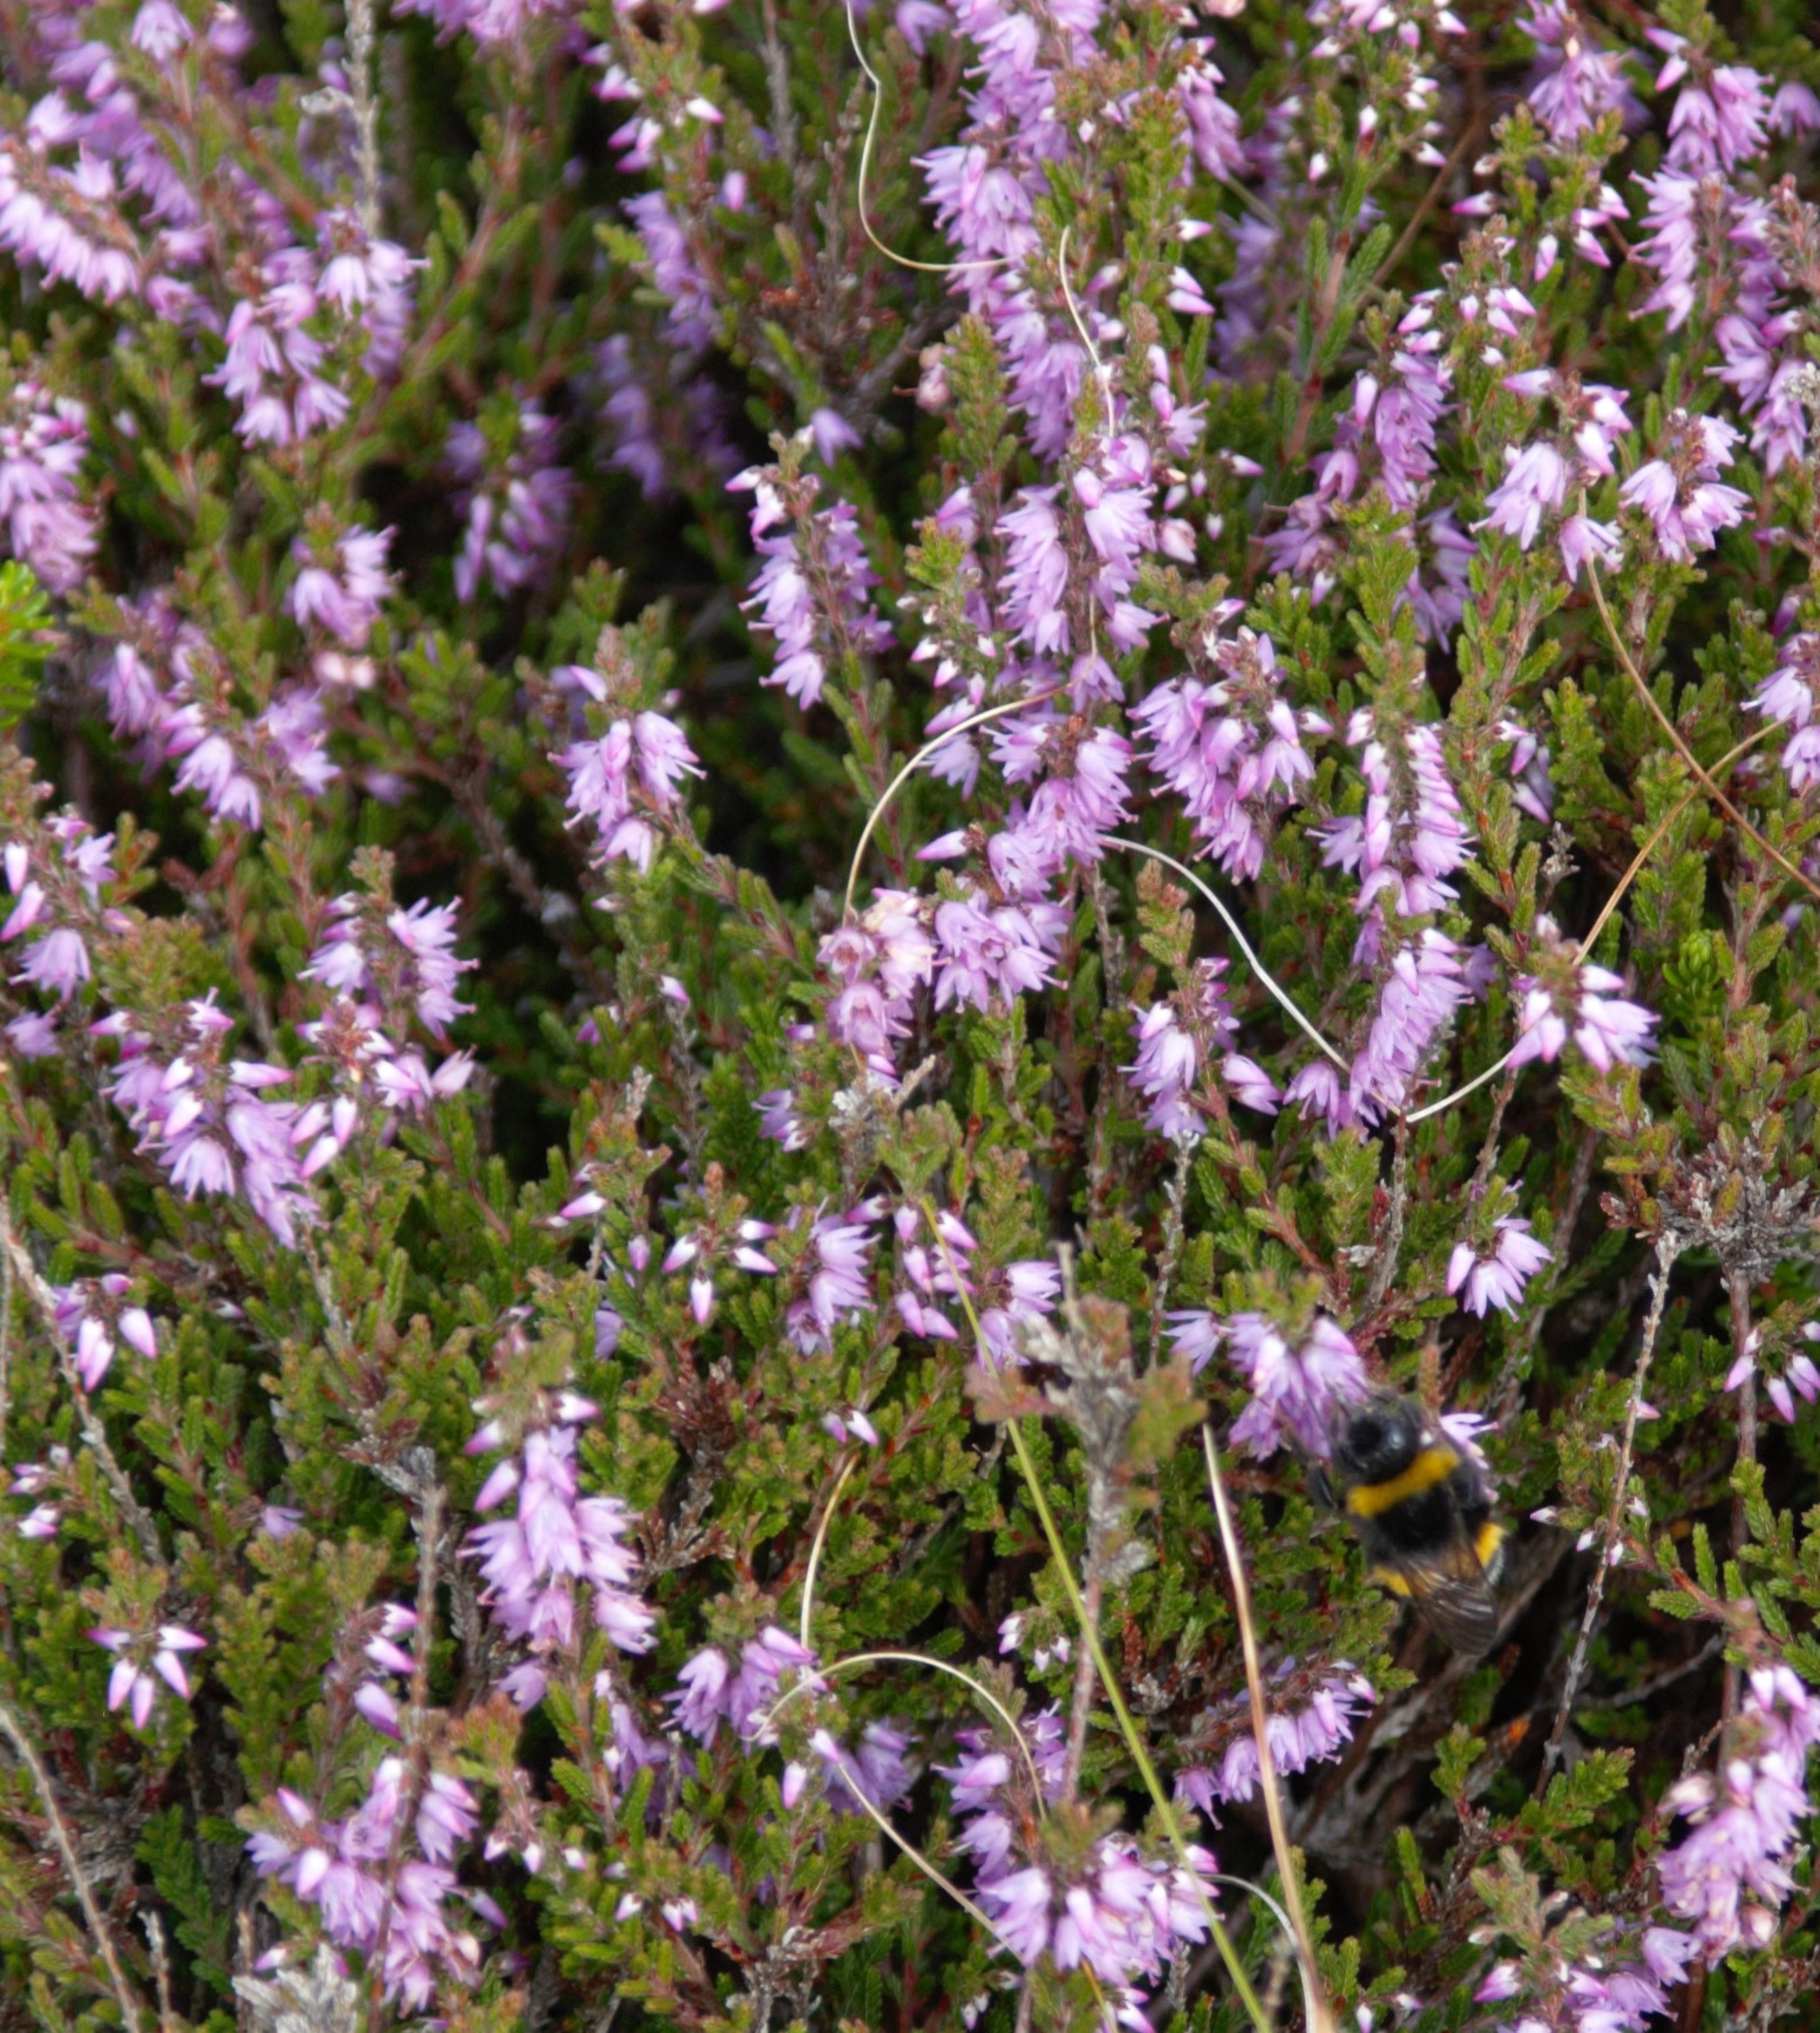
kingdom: Plantae
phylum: Tracheophyta
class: Magnoliopsida
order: Ericales
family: Ericaceae
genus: Calluna
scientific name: Calluna vulgaris
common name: Hedelyng
